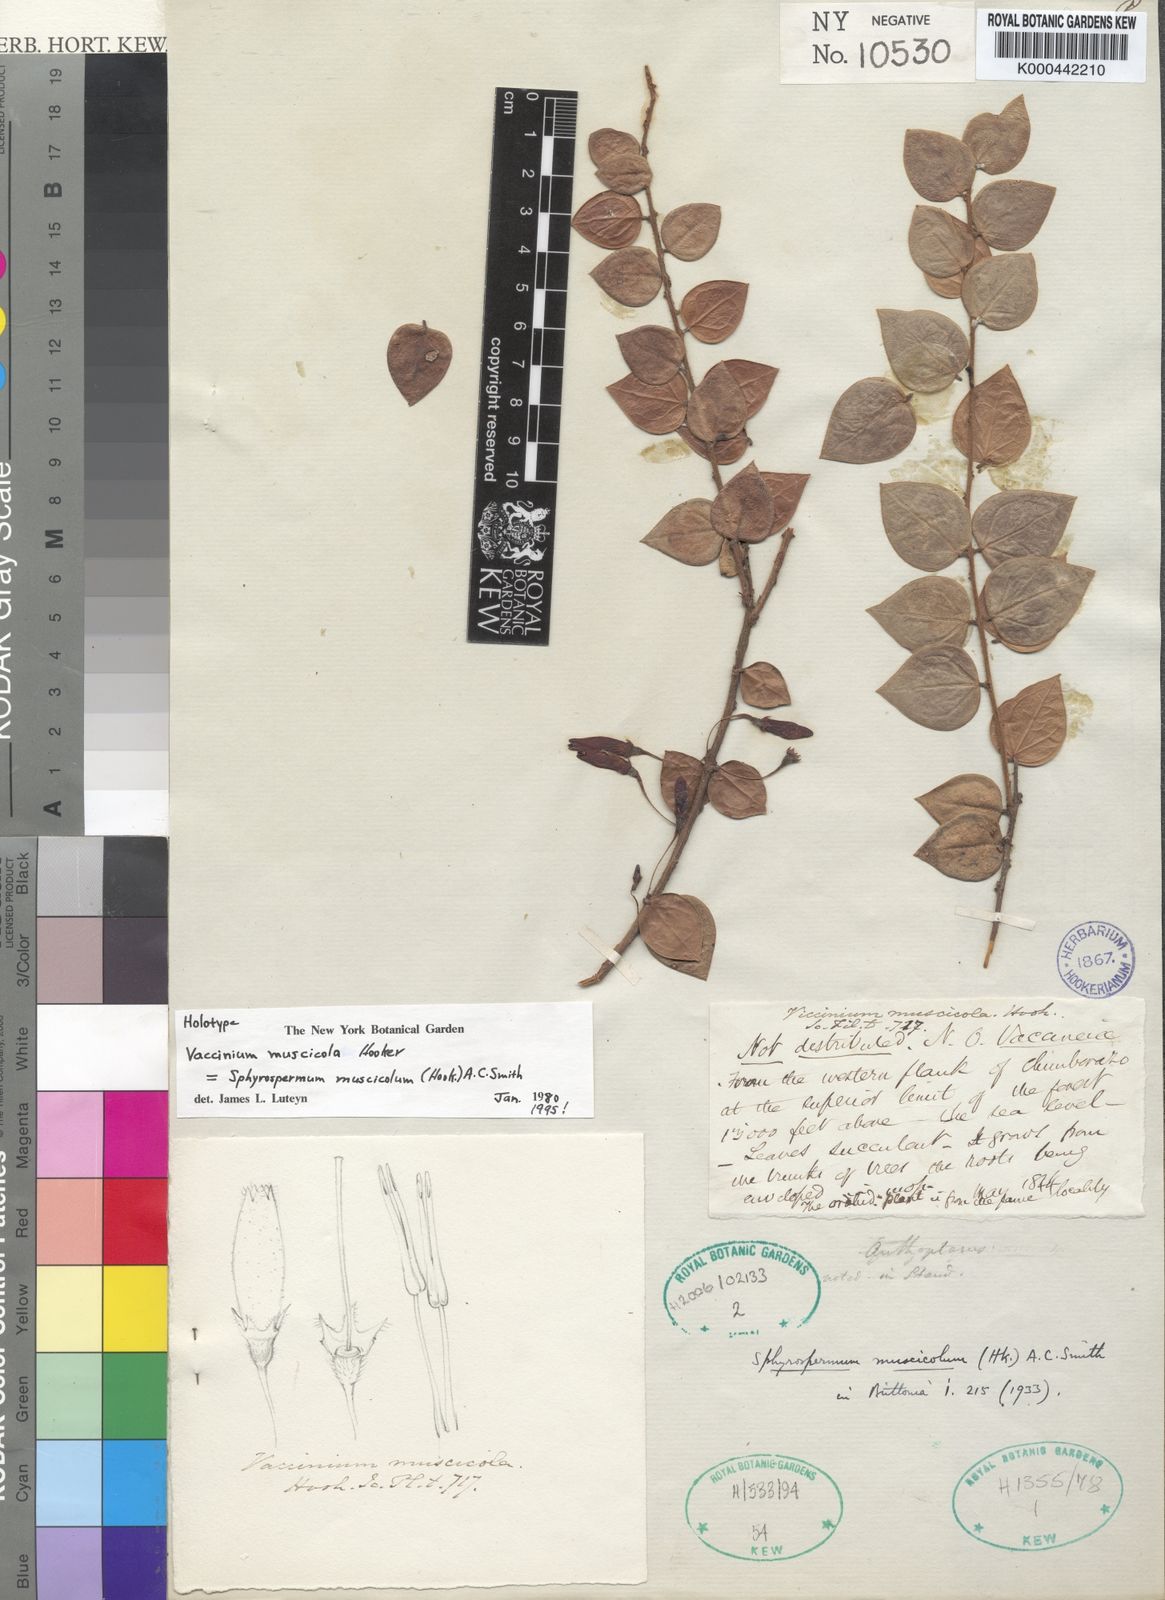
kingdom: Plantae
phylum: Tracheophyta
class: Magnoliopsida
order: Ericales
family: Ericaceae
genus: Sphyrospermum
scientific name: Sphyrospermum muscicola
